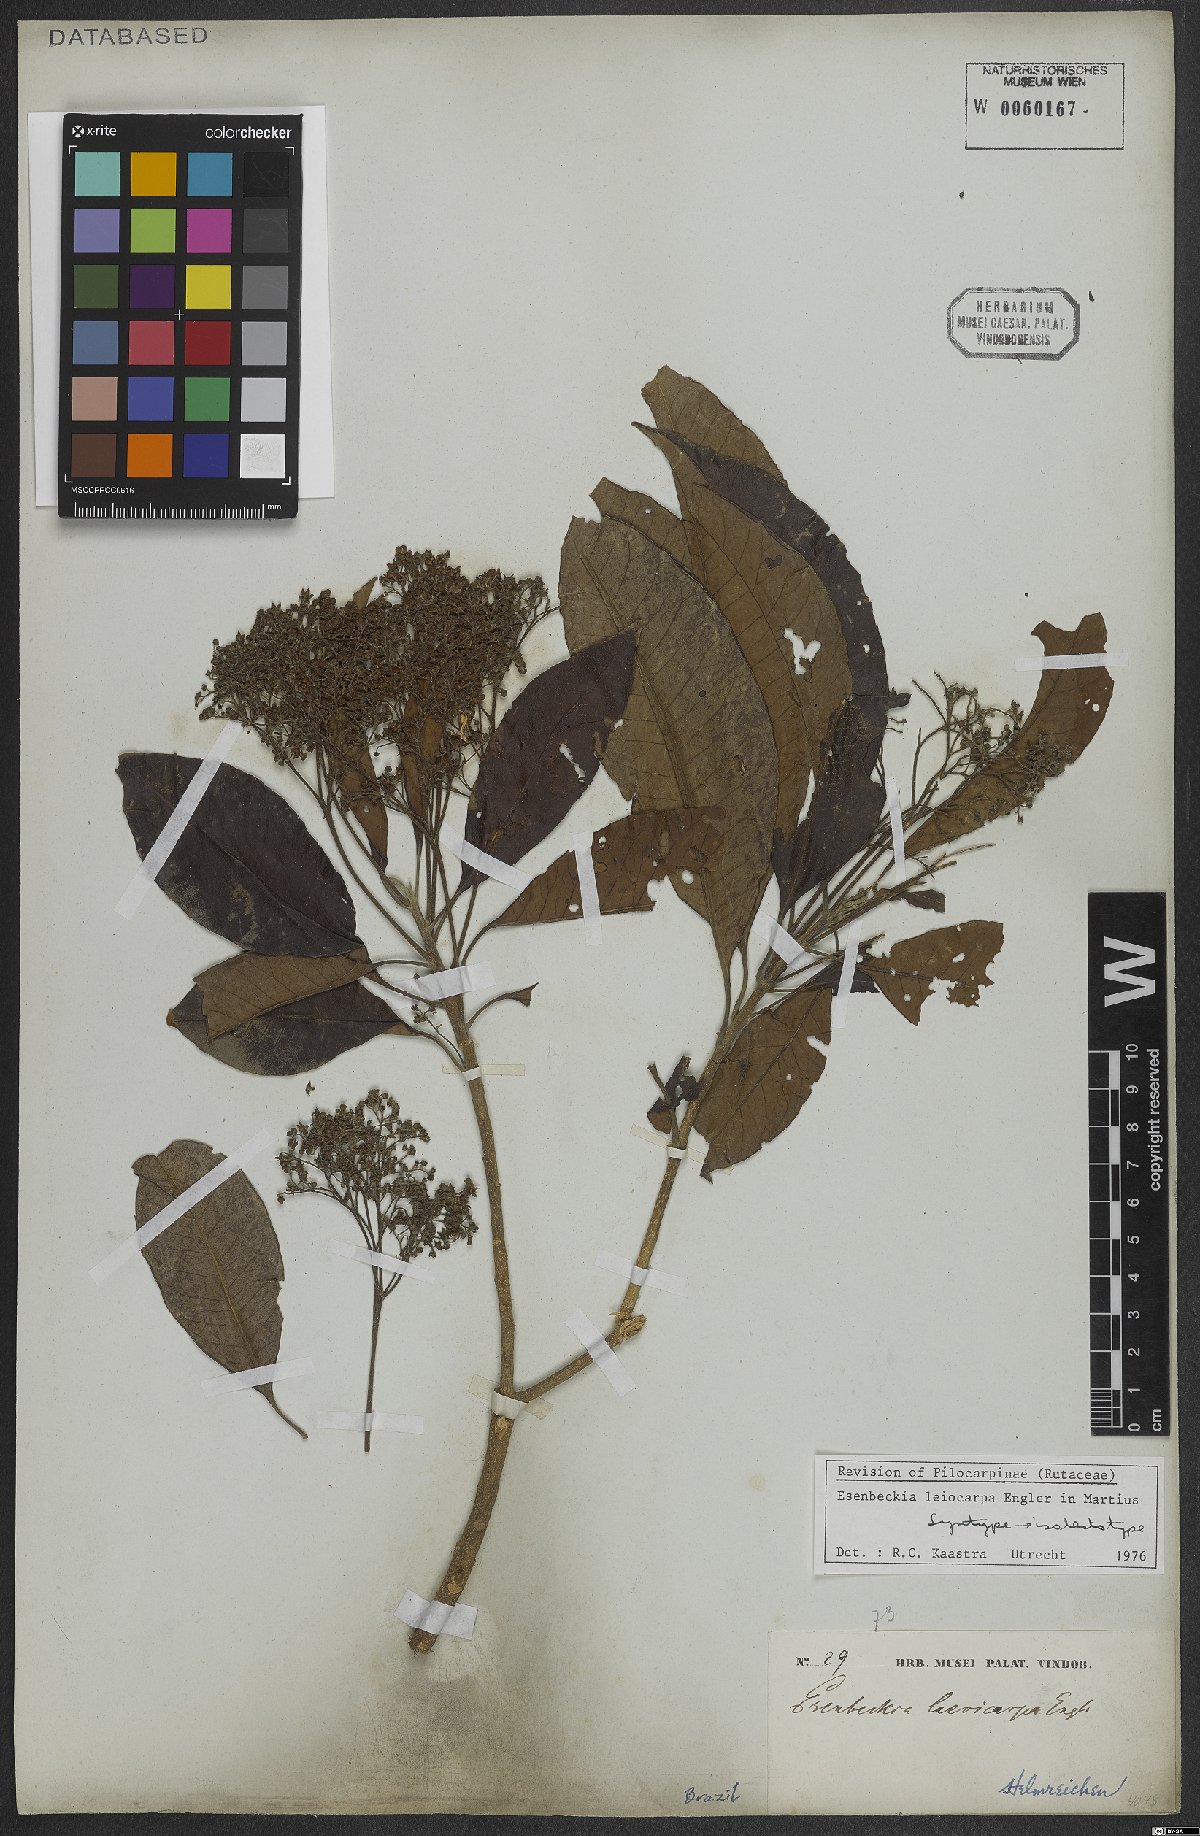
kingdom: Plantae
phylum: Tracheophyta
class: Magnoliopsida
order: Sapindales
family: Rutaceae
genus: Esenbeckia
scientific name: Esenbeckia leiocarpa
